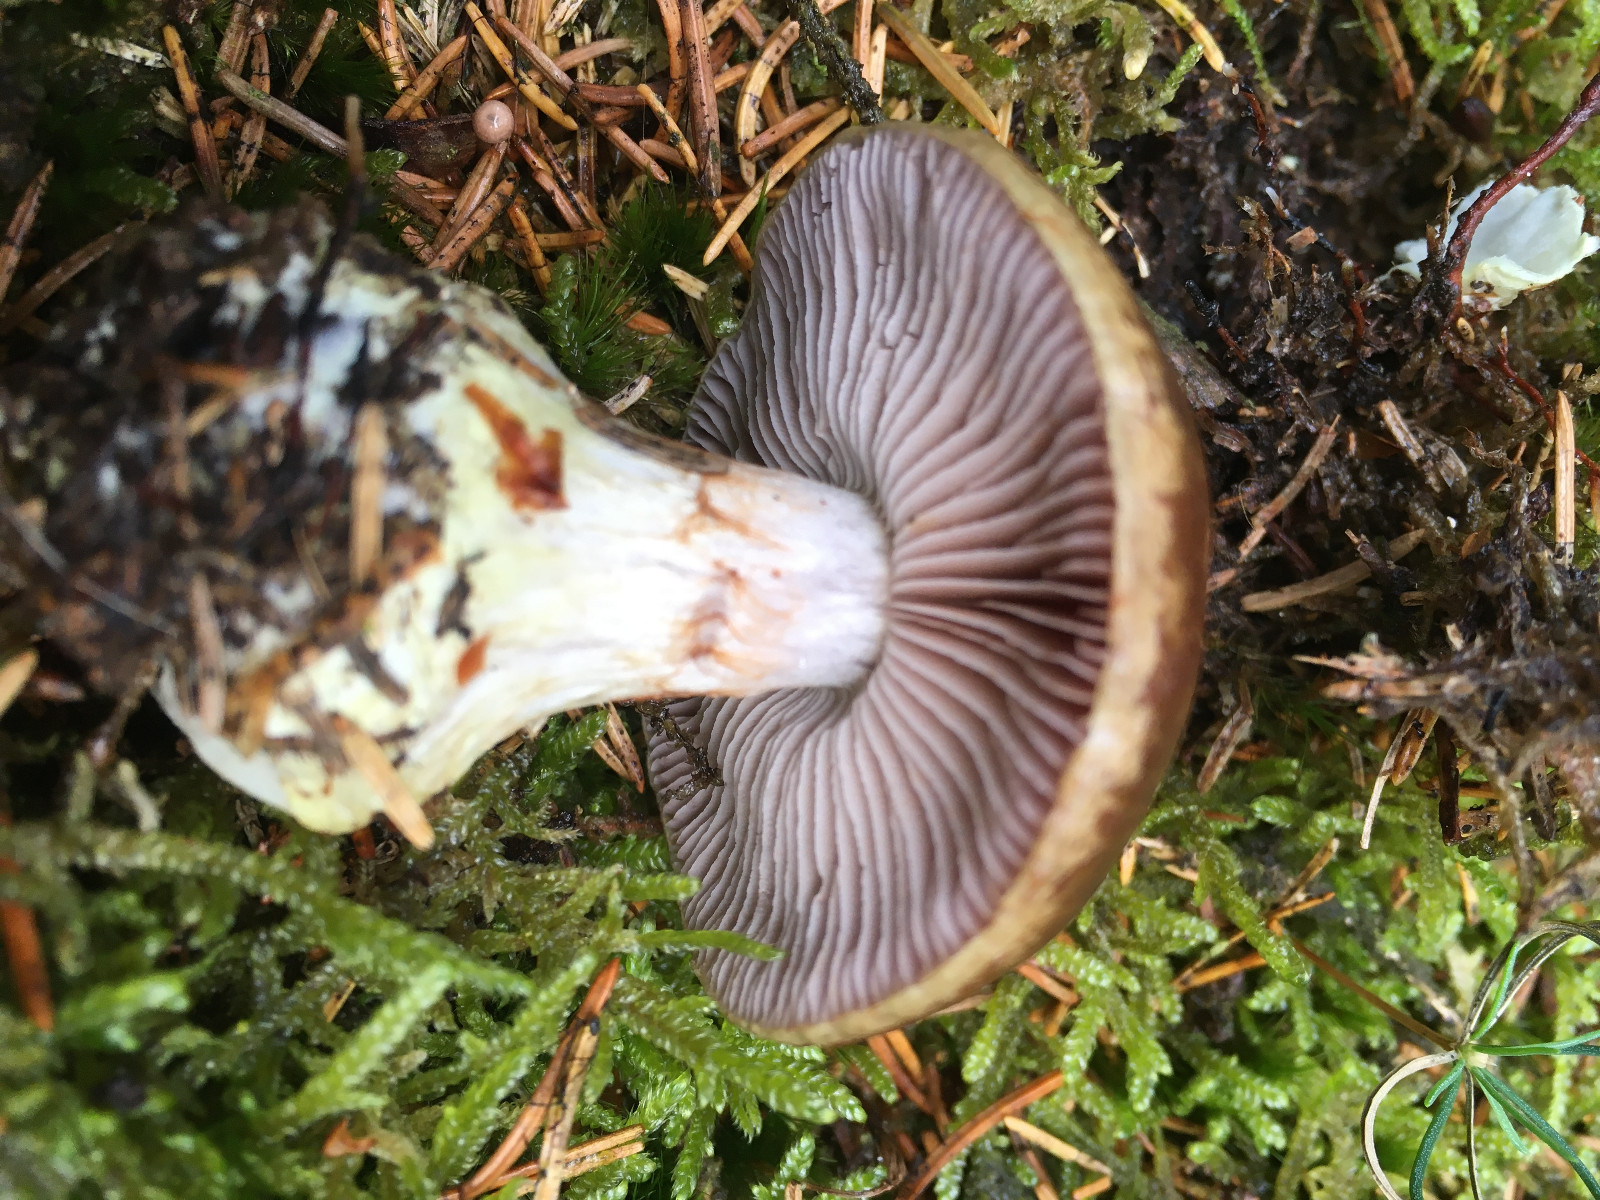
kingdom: Fungi
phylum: Basidiomycota
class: Agaricomycetes
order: Agaricales
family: Cortinariaceae
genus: Thaxterogaster
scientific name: Thaxterogaster sphagnophilus
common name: vandplettet slørhat
